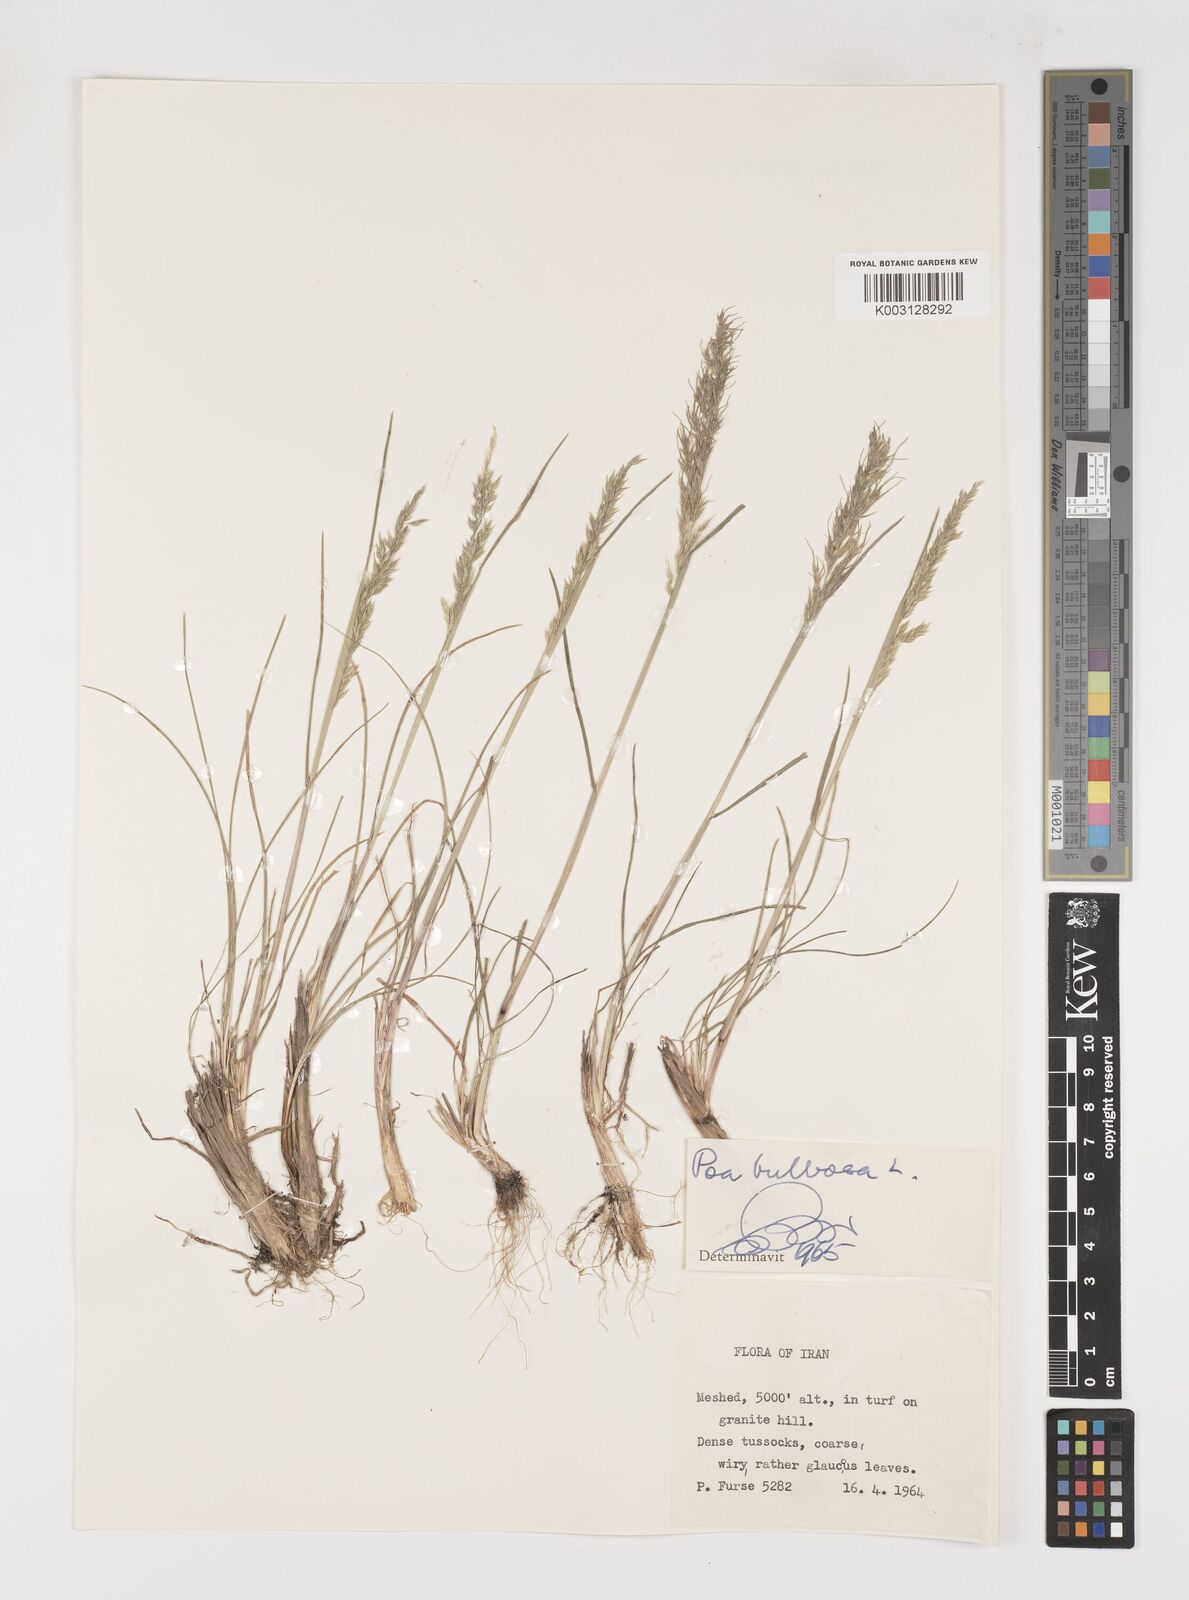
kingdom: Plantae
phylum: Tracheophyta
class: Liliopsida
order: Poales
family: Poaceae
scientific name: Poaceae
